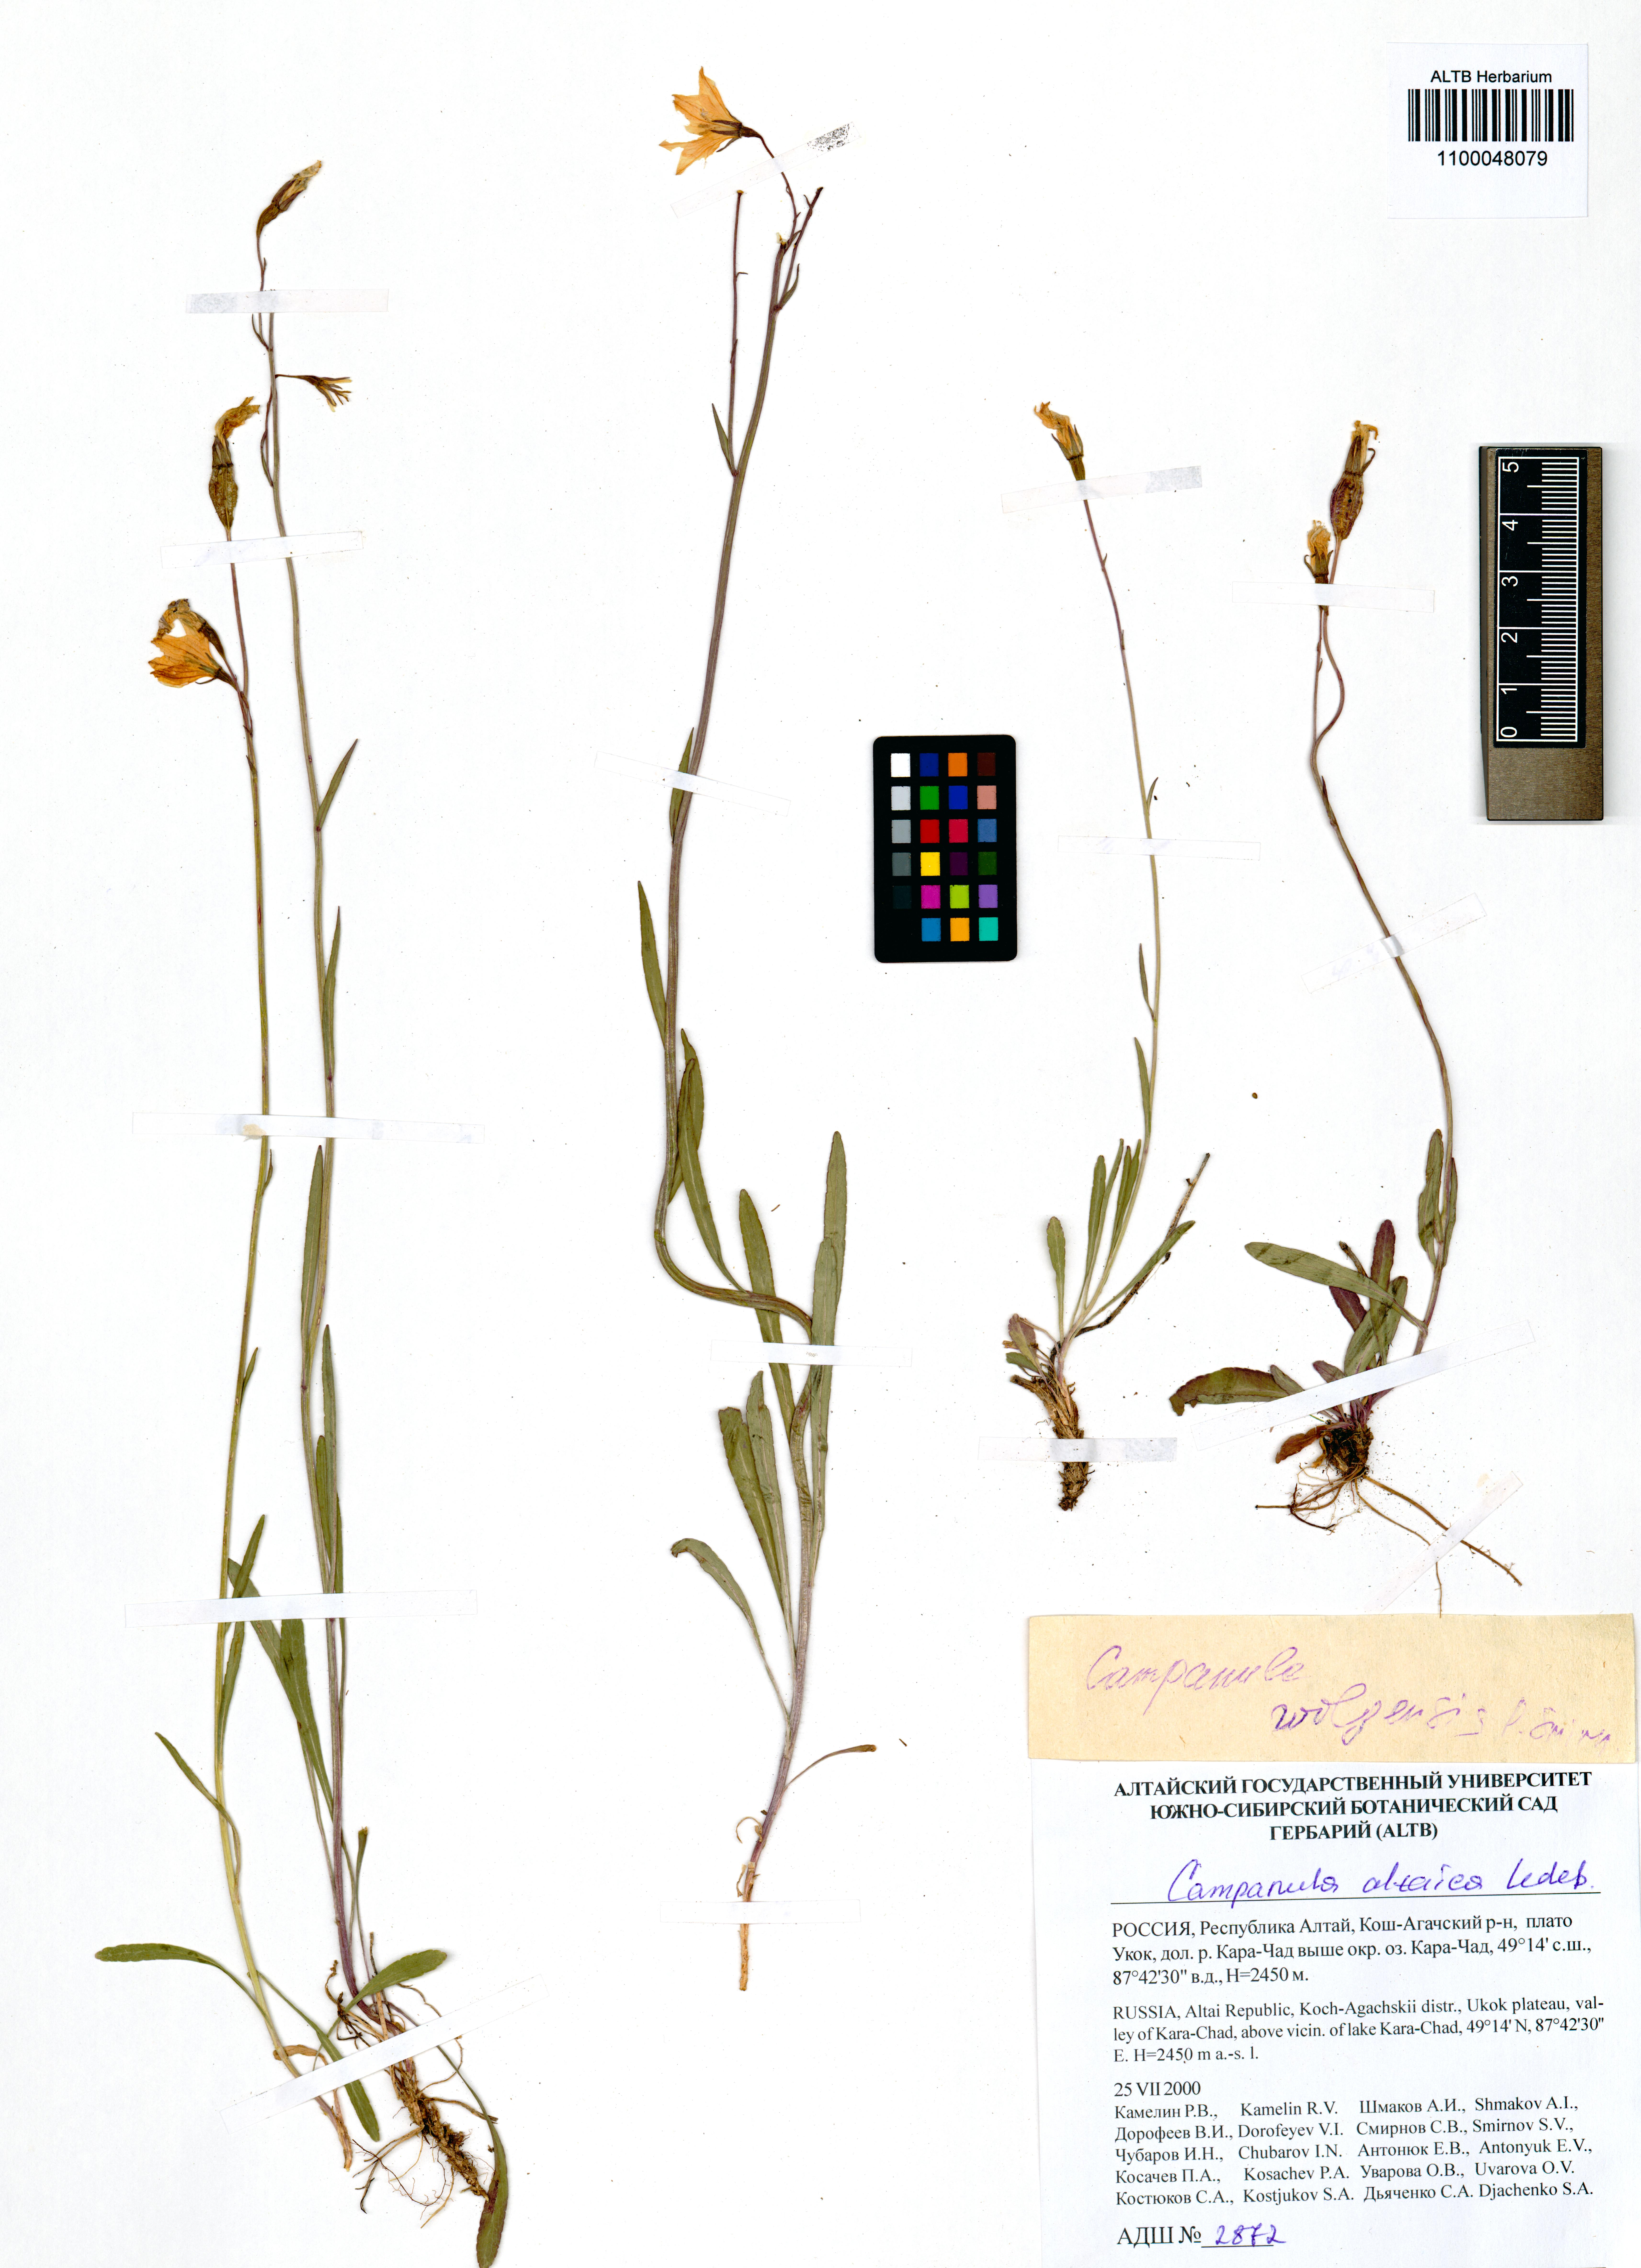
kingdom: Plantae
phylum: Tracheophyta
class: Magnoliopsida
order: Asterales
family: Campanulaceae
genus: Campanula
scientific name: Campanula stevenii
